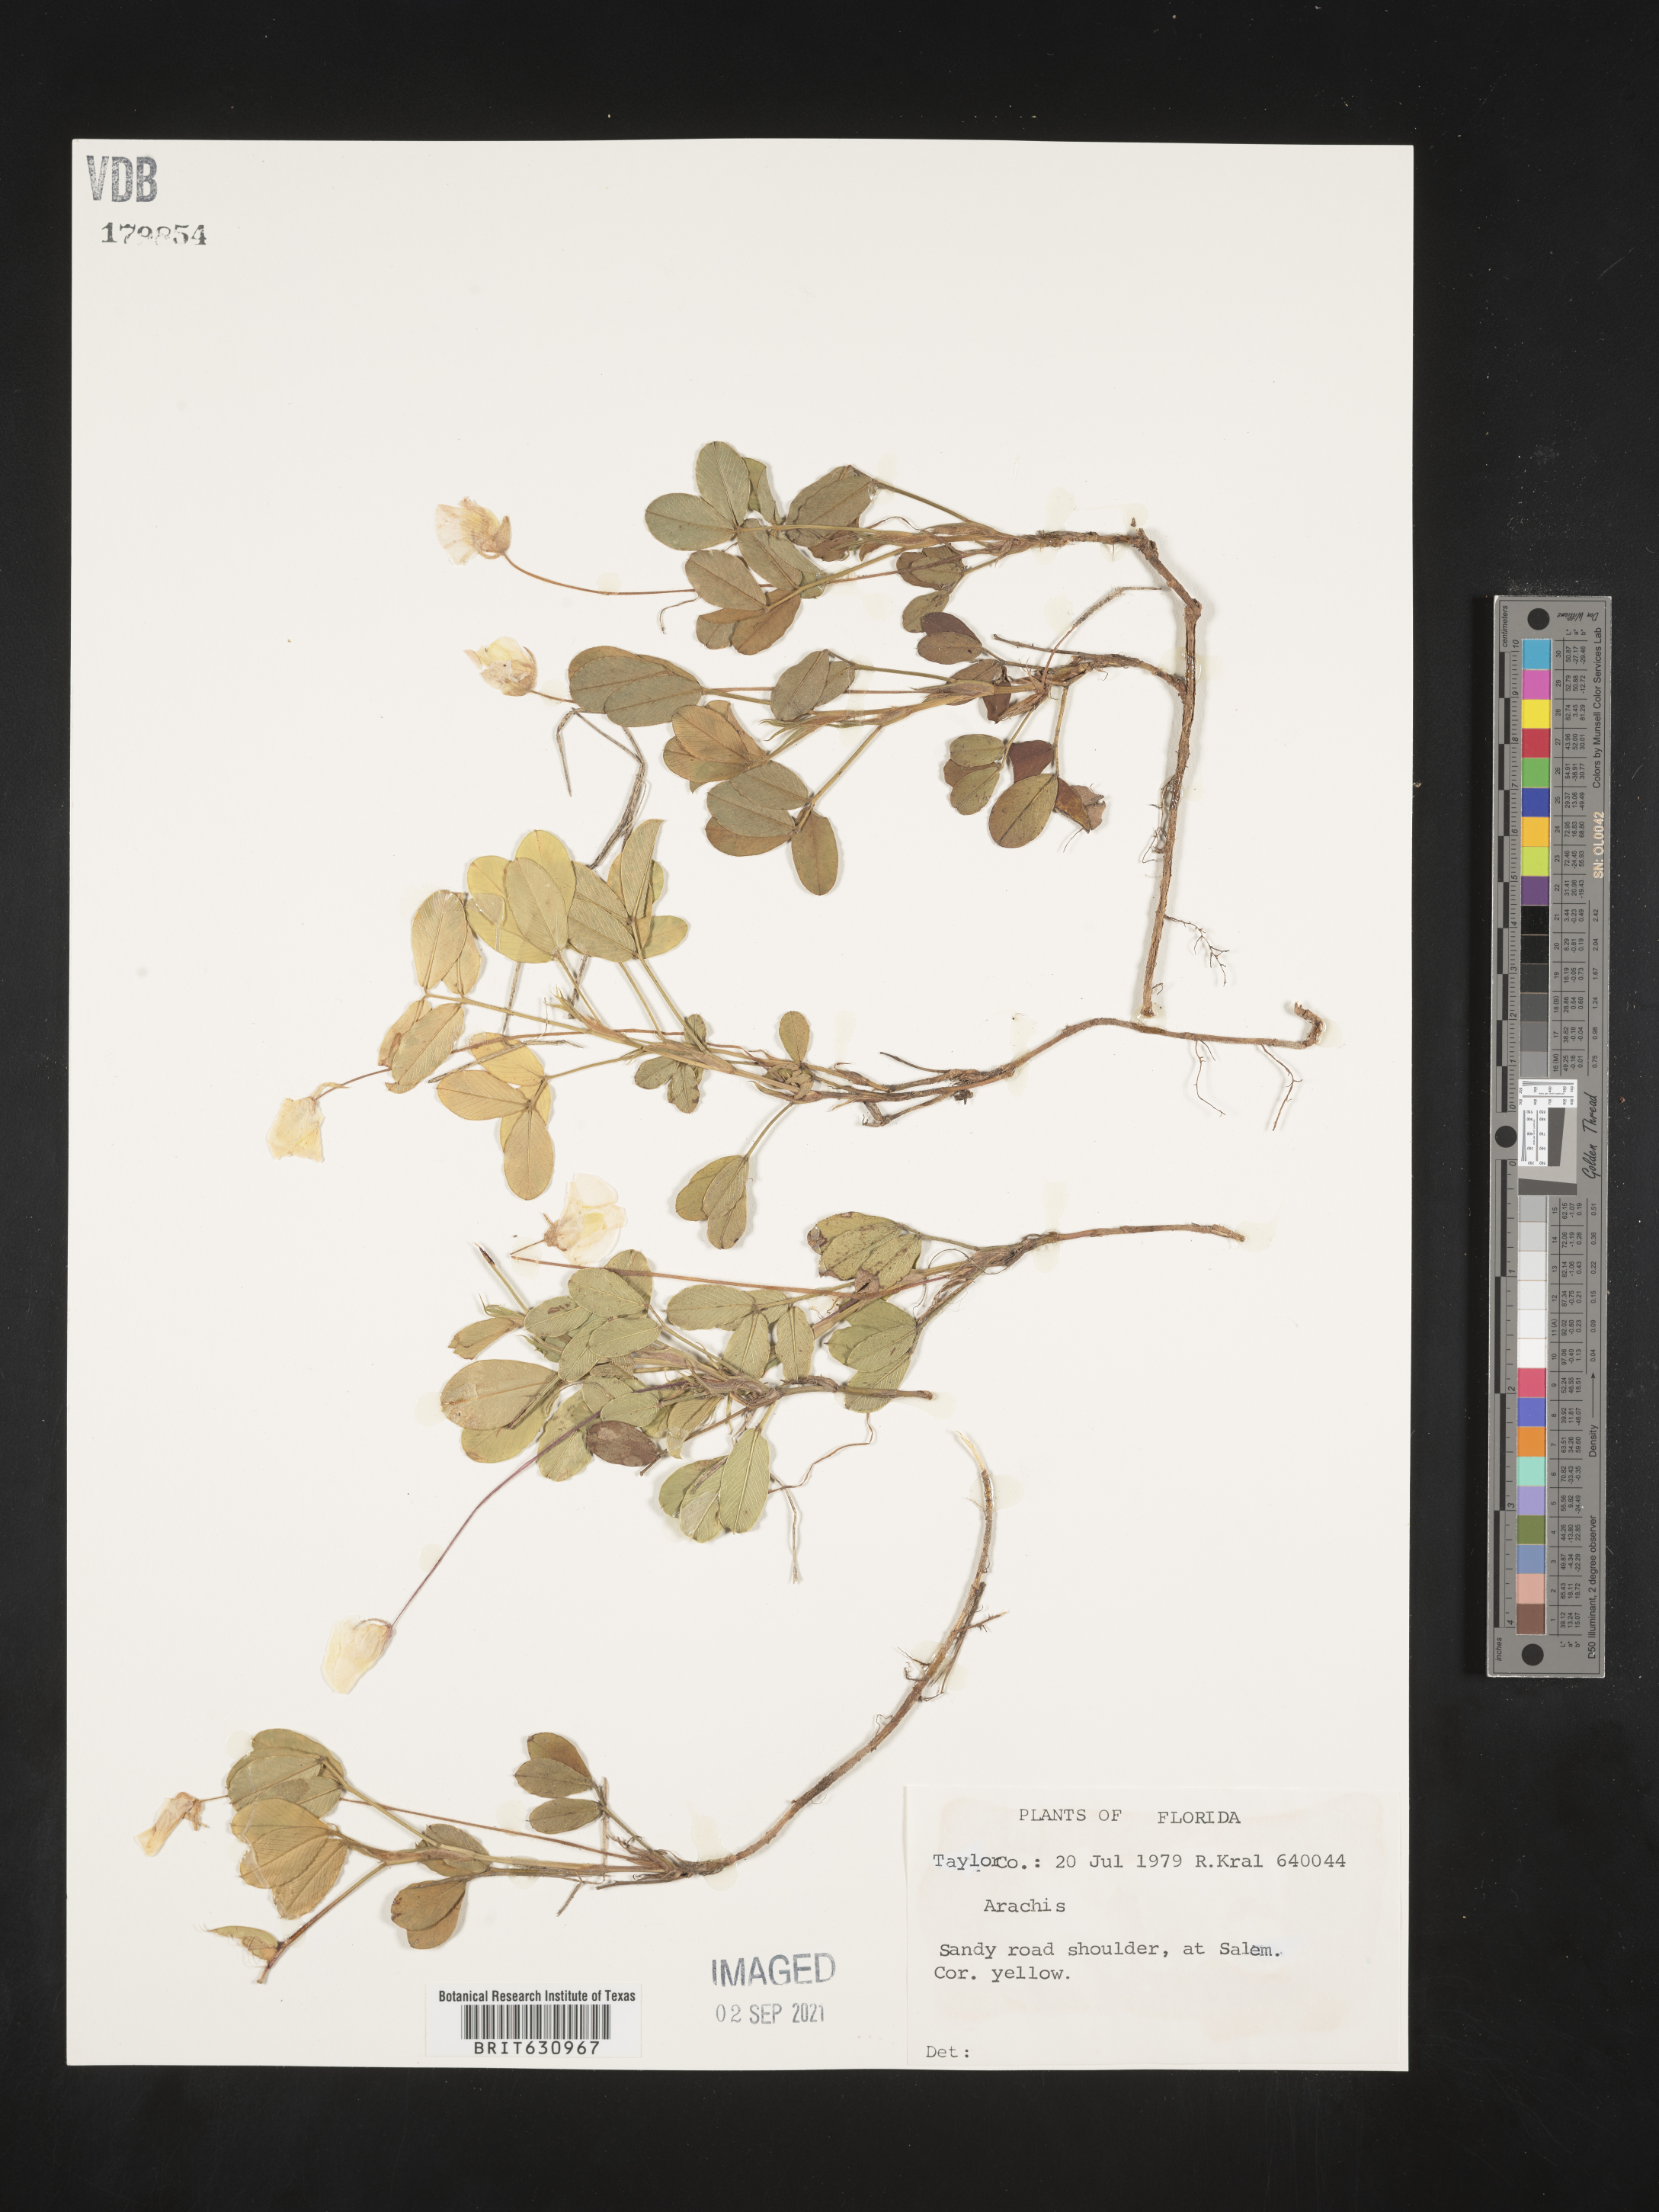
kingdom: Plantae
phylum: Tracheophyta
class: Magnoliopsida
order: Fabales
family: Fabaceae
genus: Arachis
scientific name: Arachis
